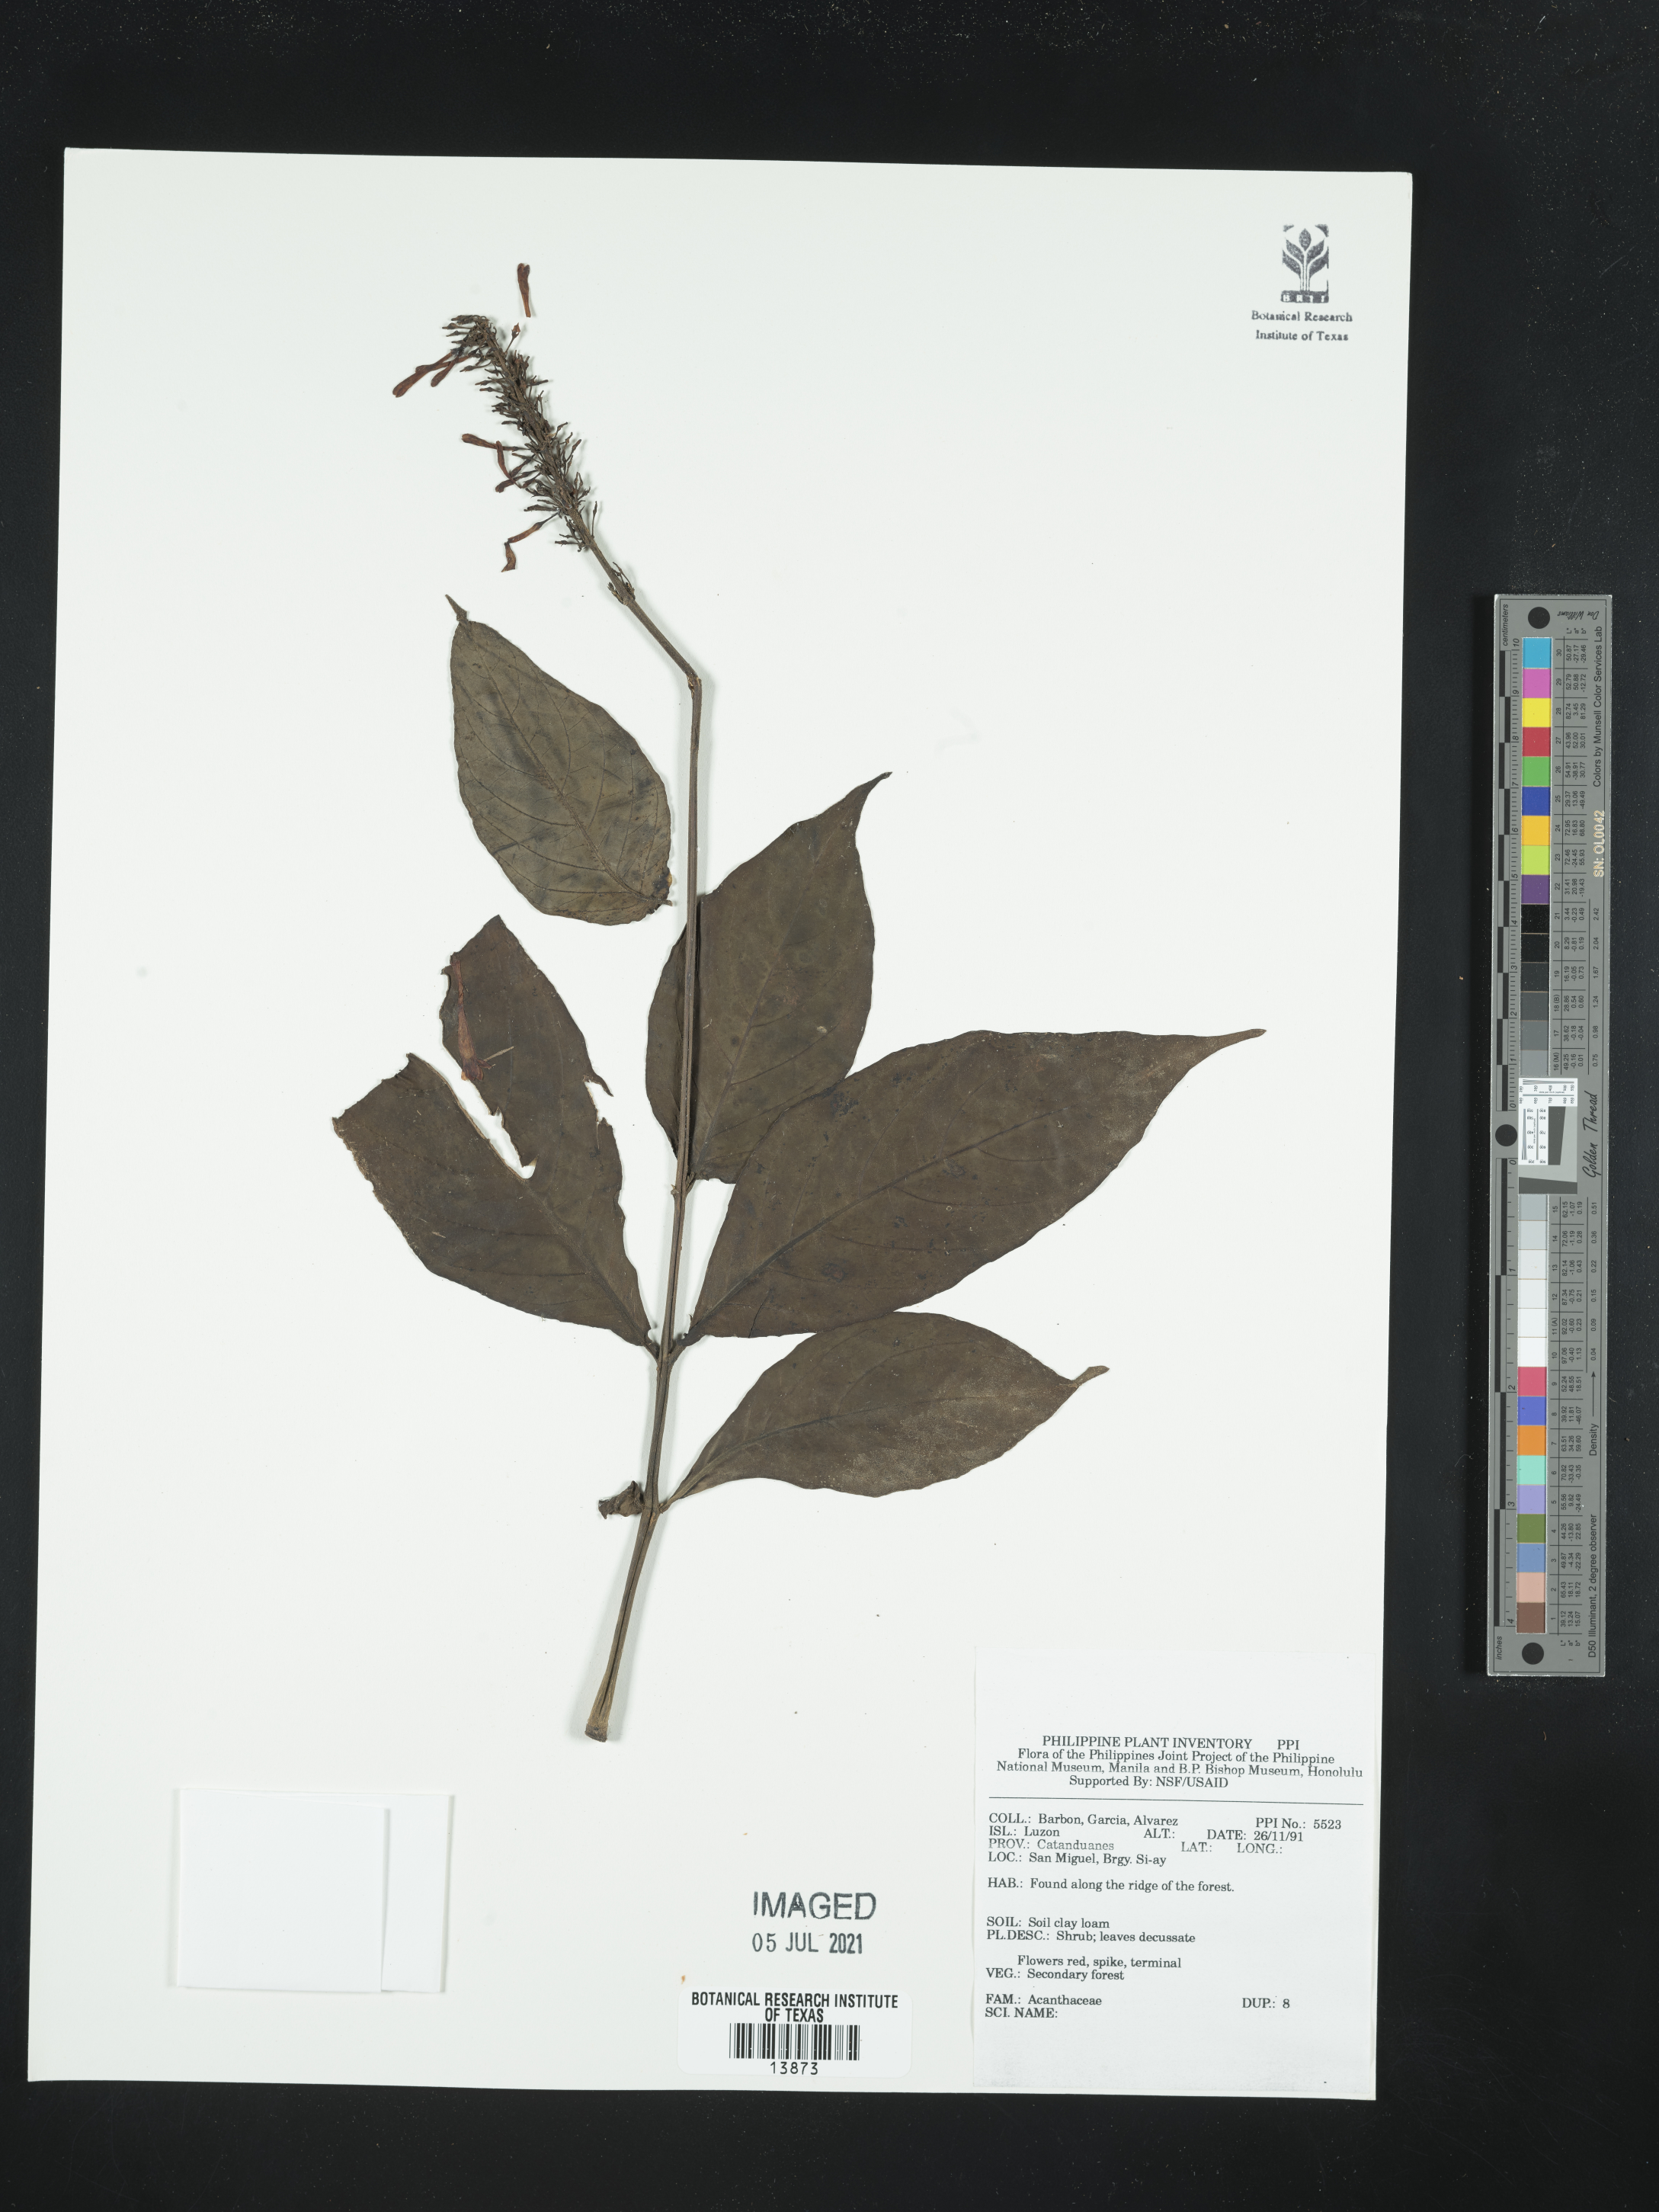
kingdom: Plantae
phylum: Tracheophyta
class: Magnoliopsida
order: Lamiales
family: Acanthaceae
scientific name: Acanthaceae
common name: Acanthaceae
